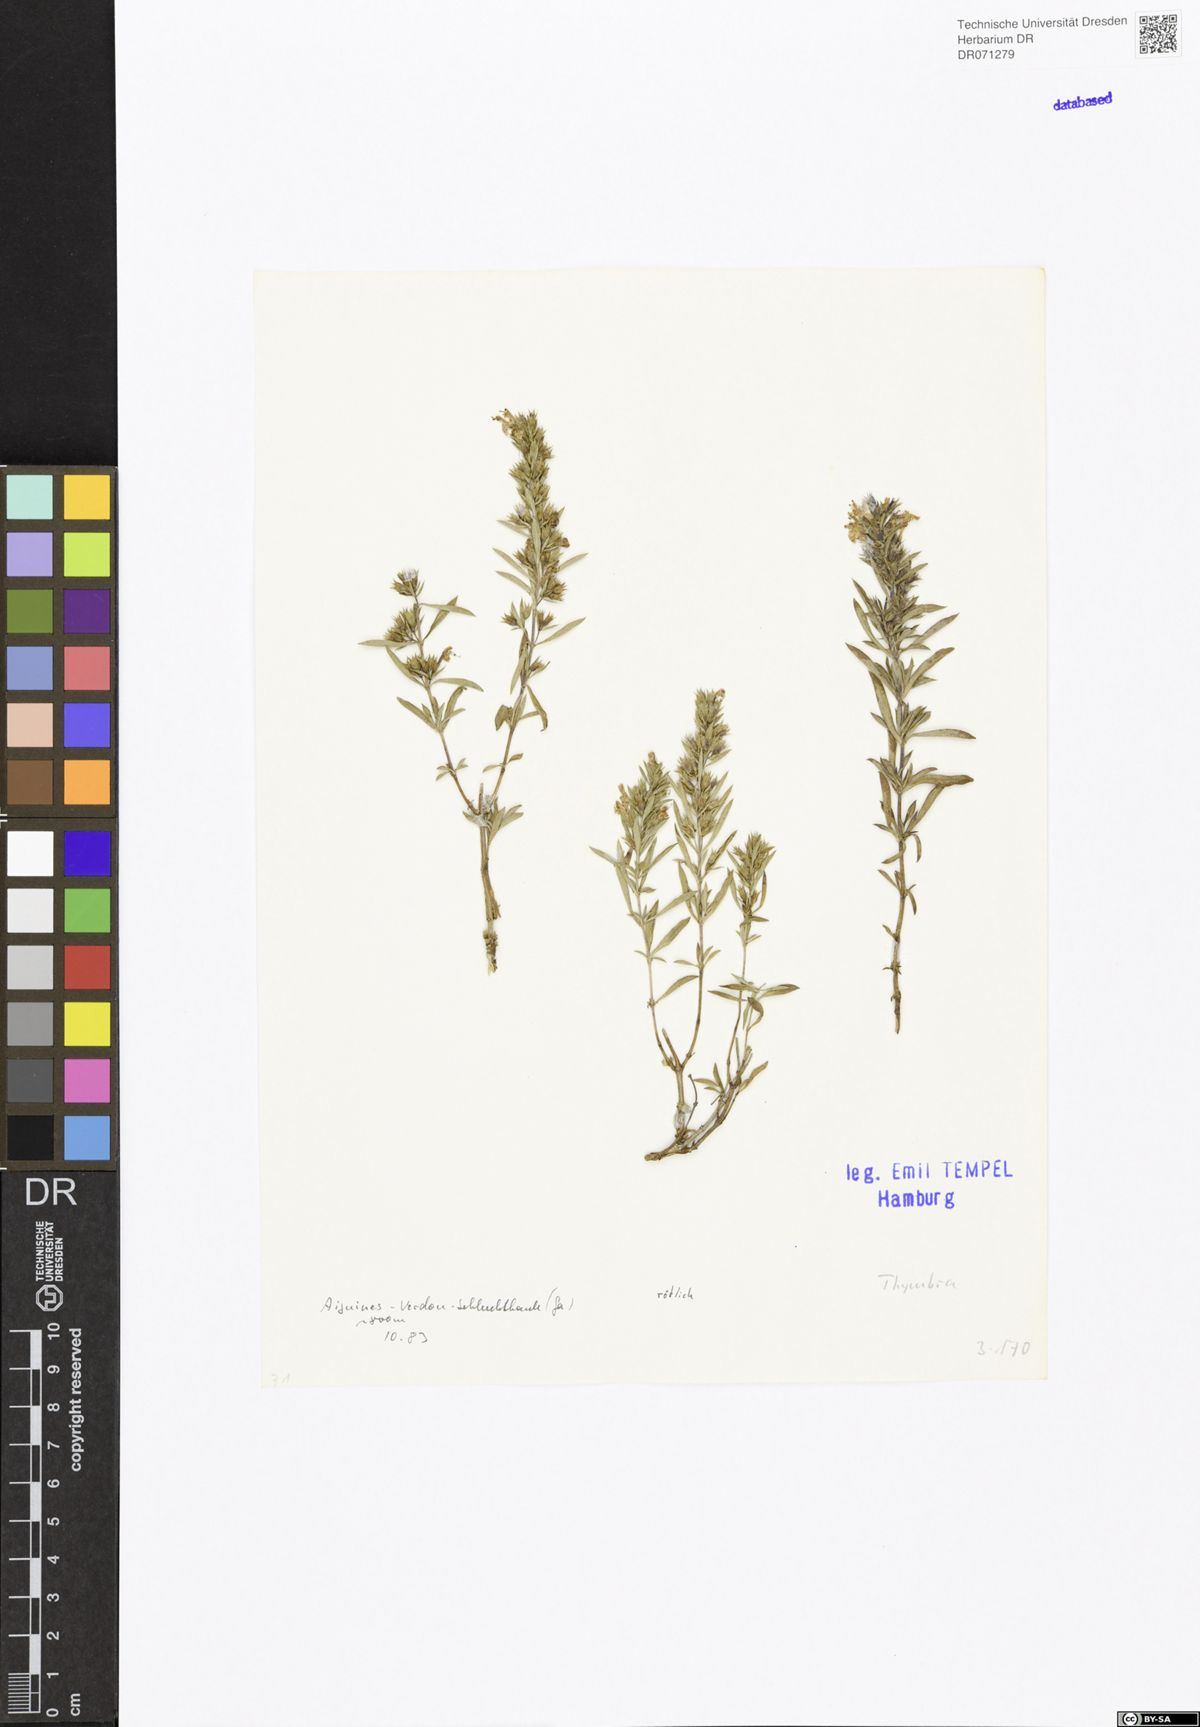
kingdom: Plantae
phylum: Tracheophyta
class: Magnoliopsida
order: Lamiales
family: Lamiaceae
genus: Thymbra
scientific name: Thymbra
